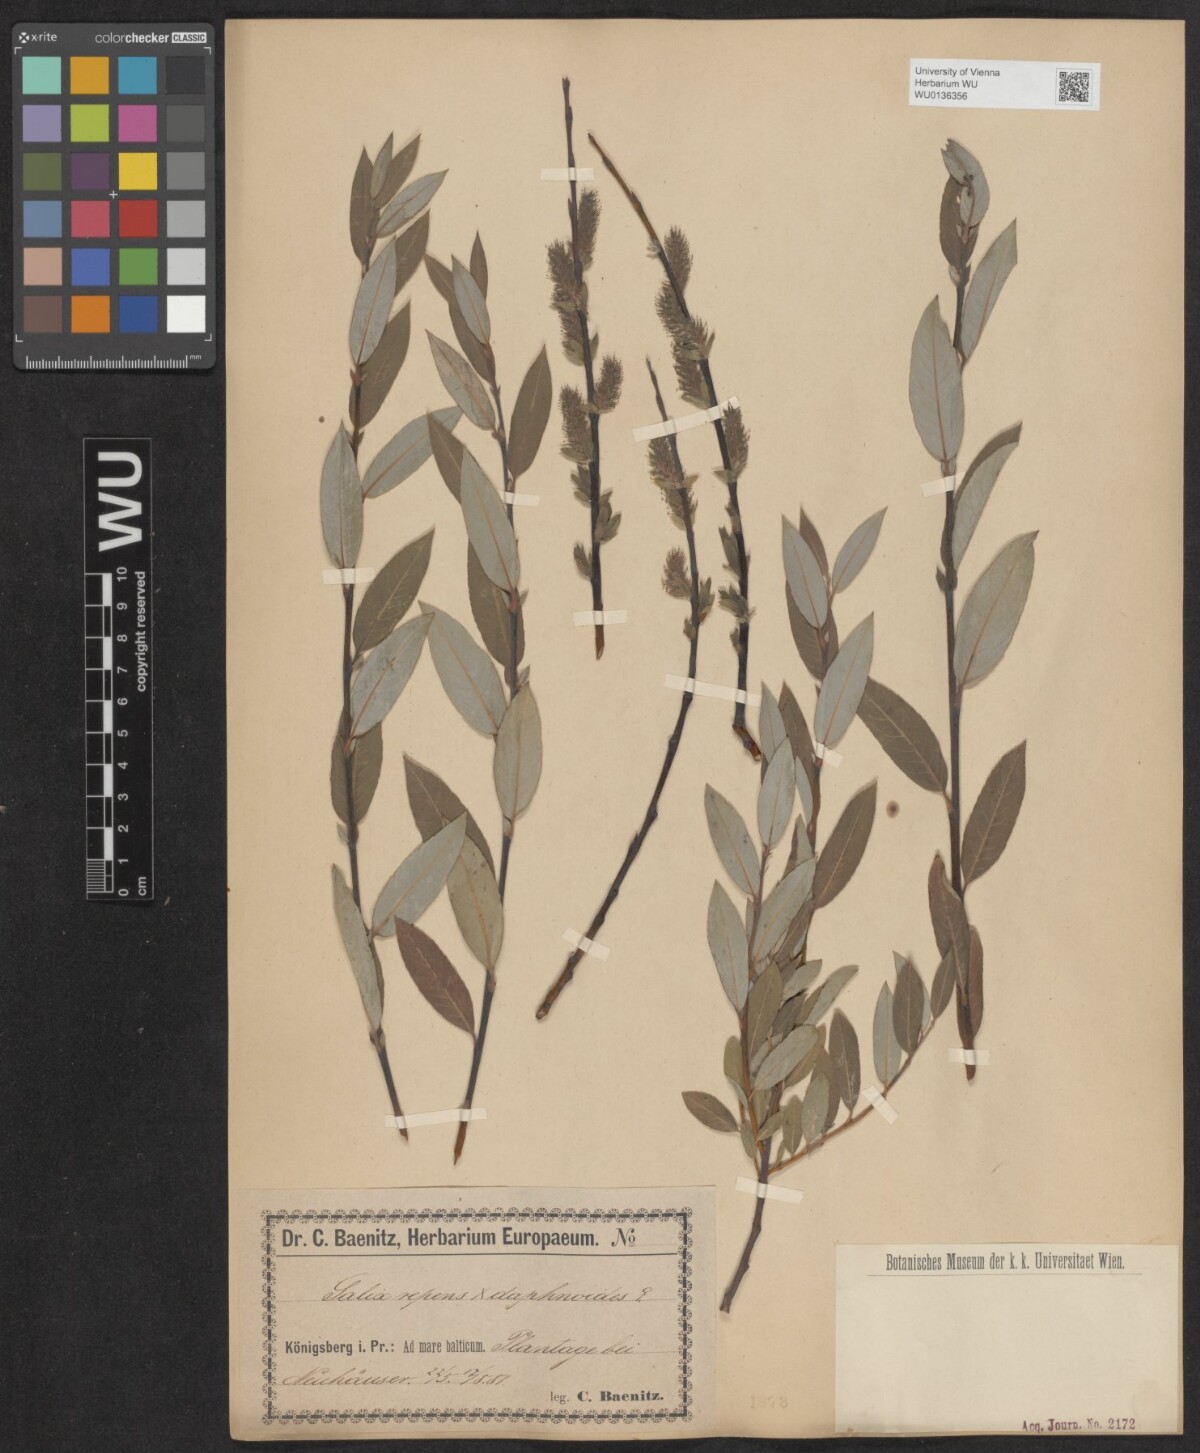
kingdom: Plantae
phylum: Tracheophyta
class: Magnoliopsida
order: Malpighiales
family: Salicaceae
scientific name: Salicaceae
